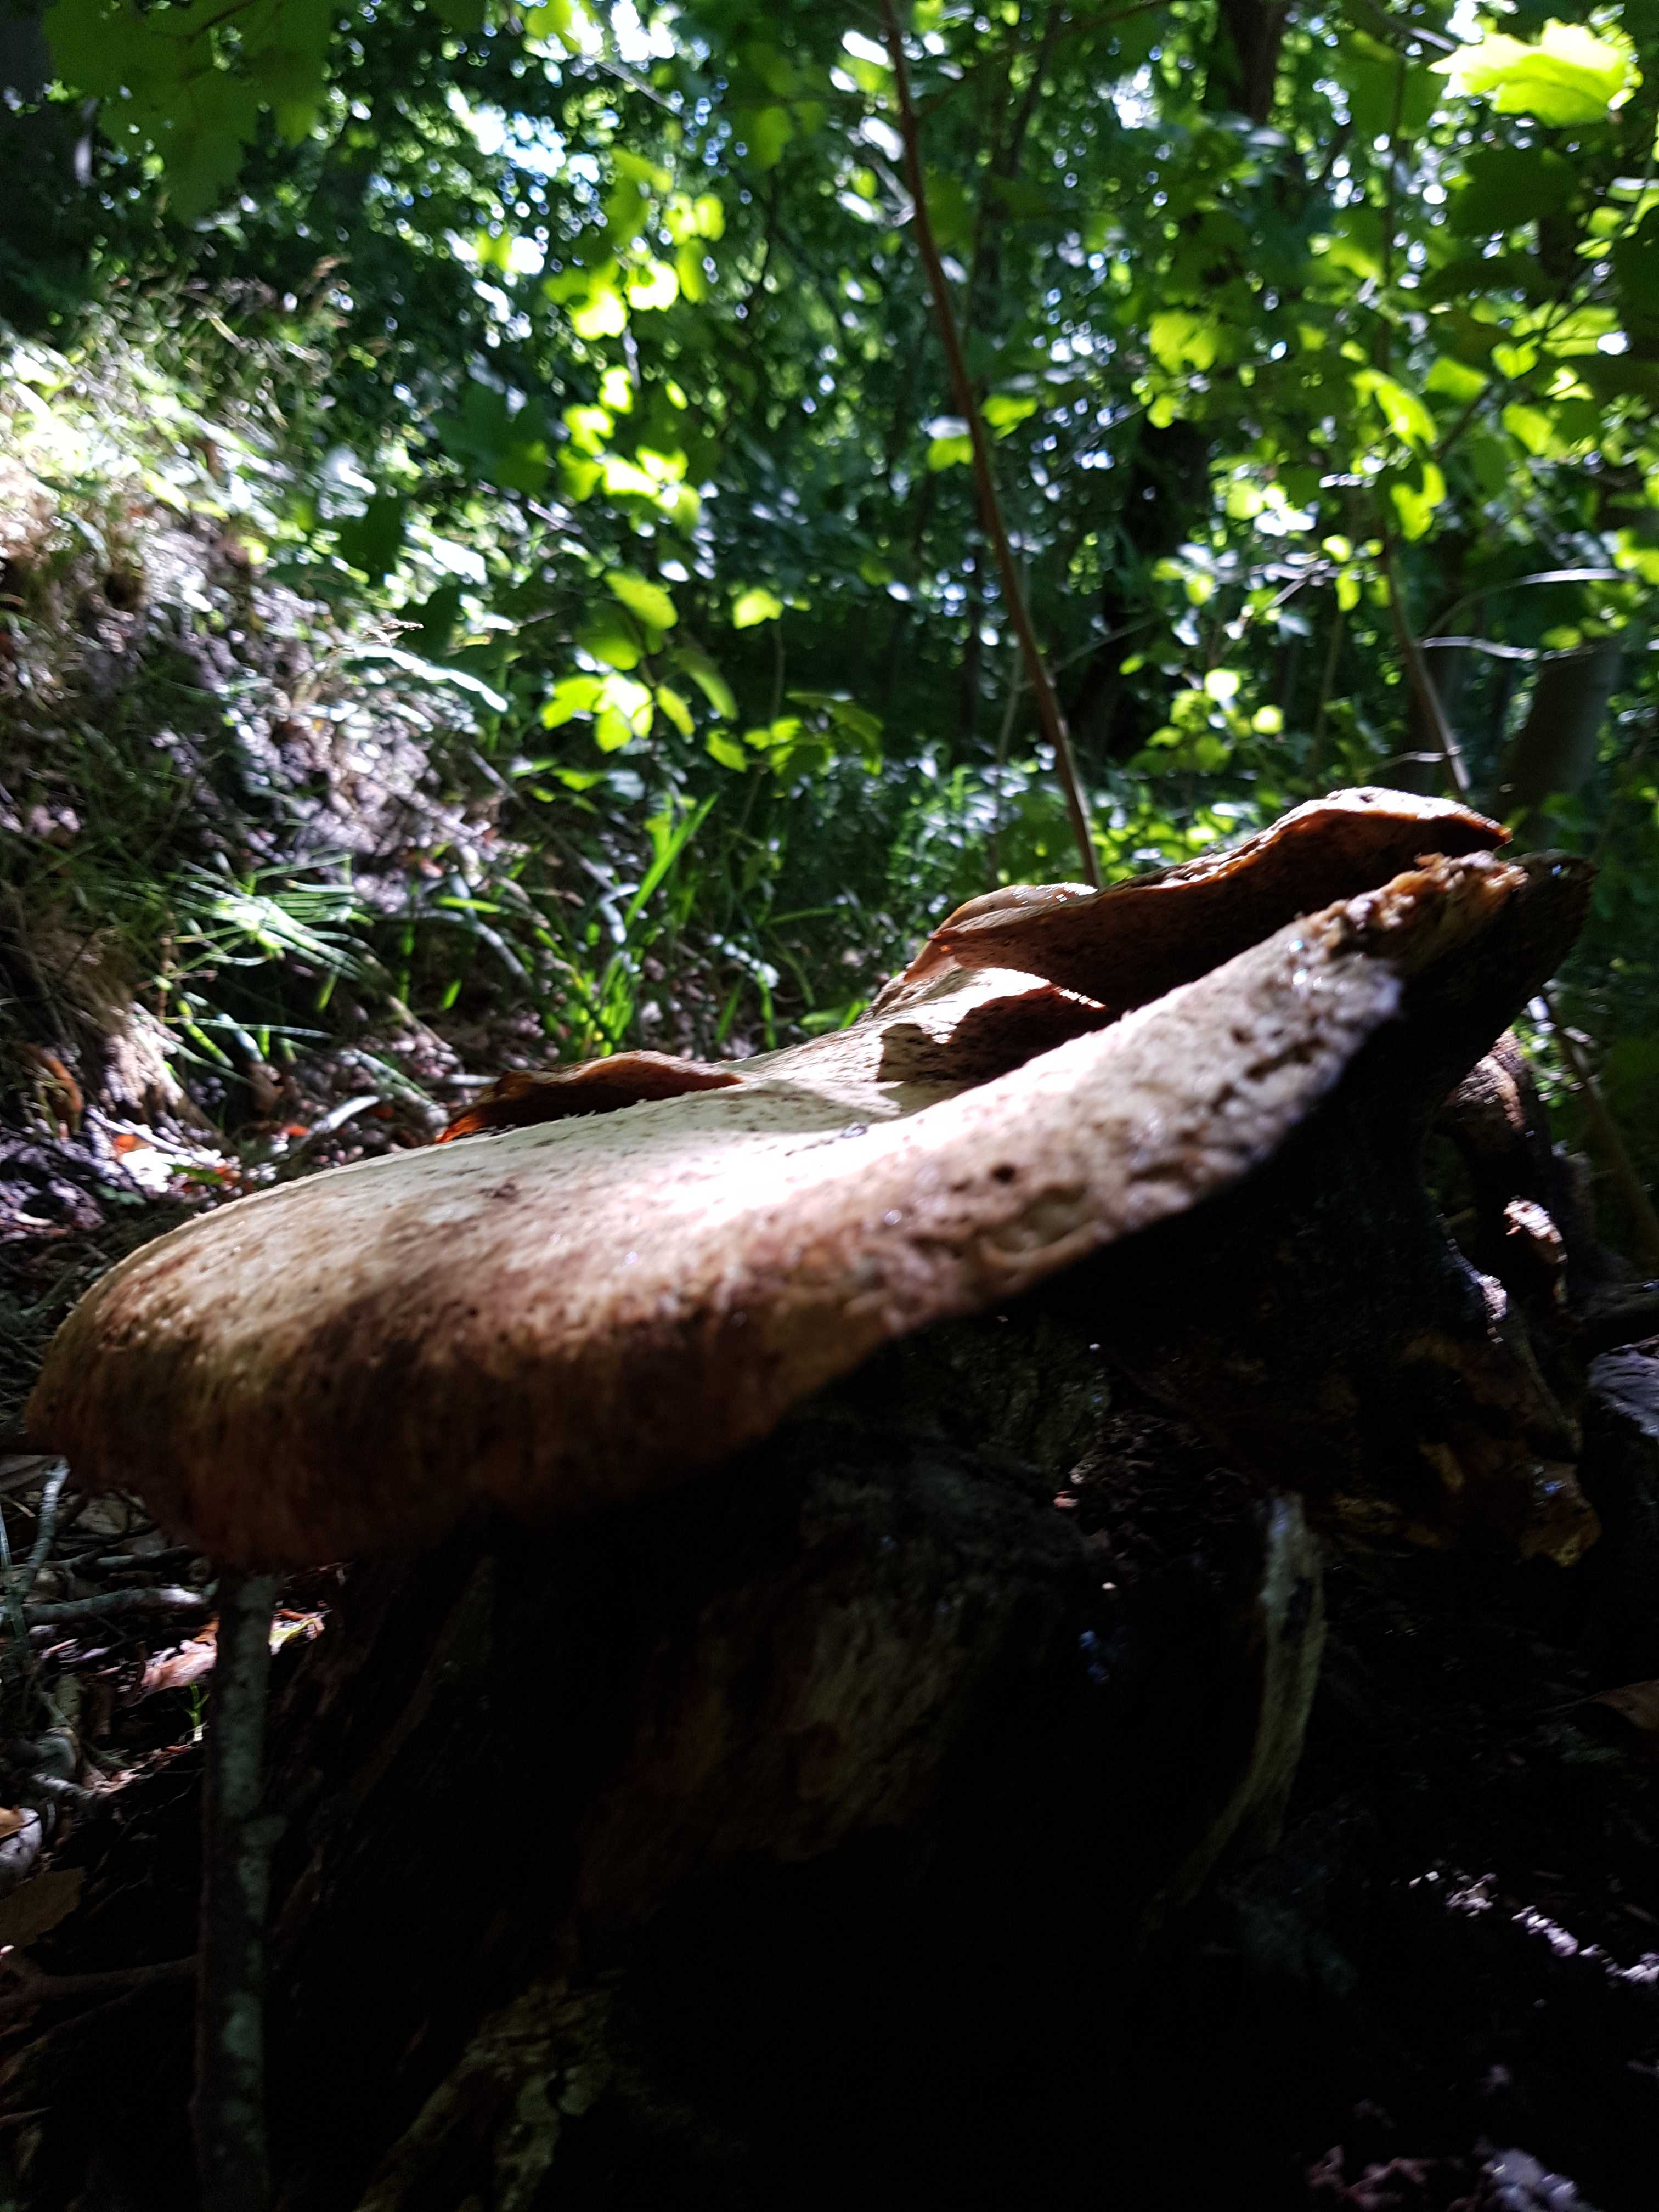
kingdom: Fungi
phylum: Basidiomycota
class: Agaricomycetes
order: Polyporales
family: Polyporaceae
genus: Cerioporus
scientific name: Cerioporus squamosus
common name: skællet stilkporesvamp
